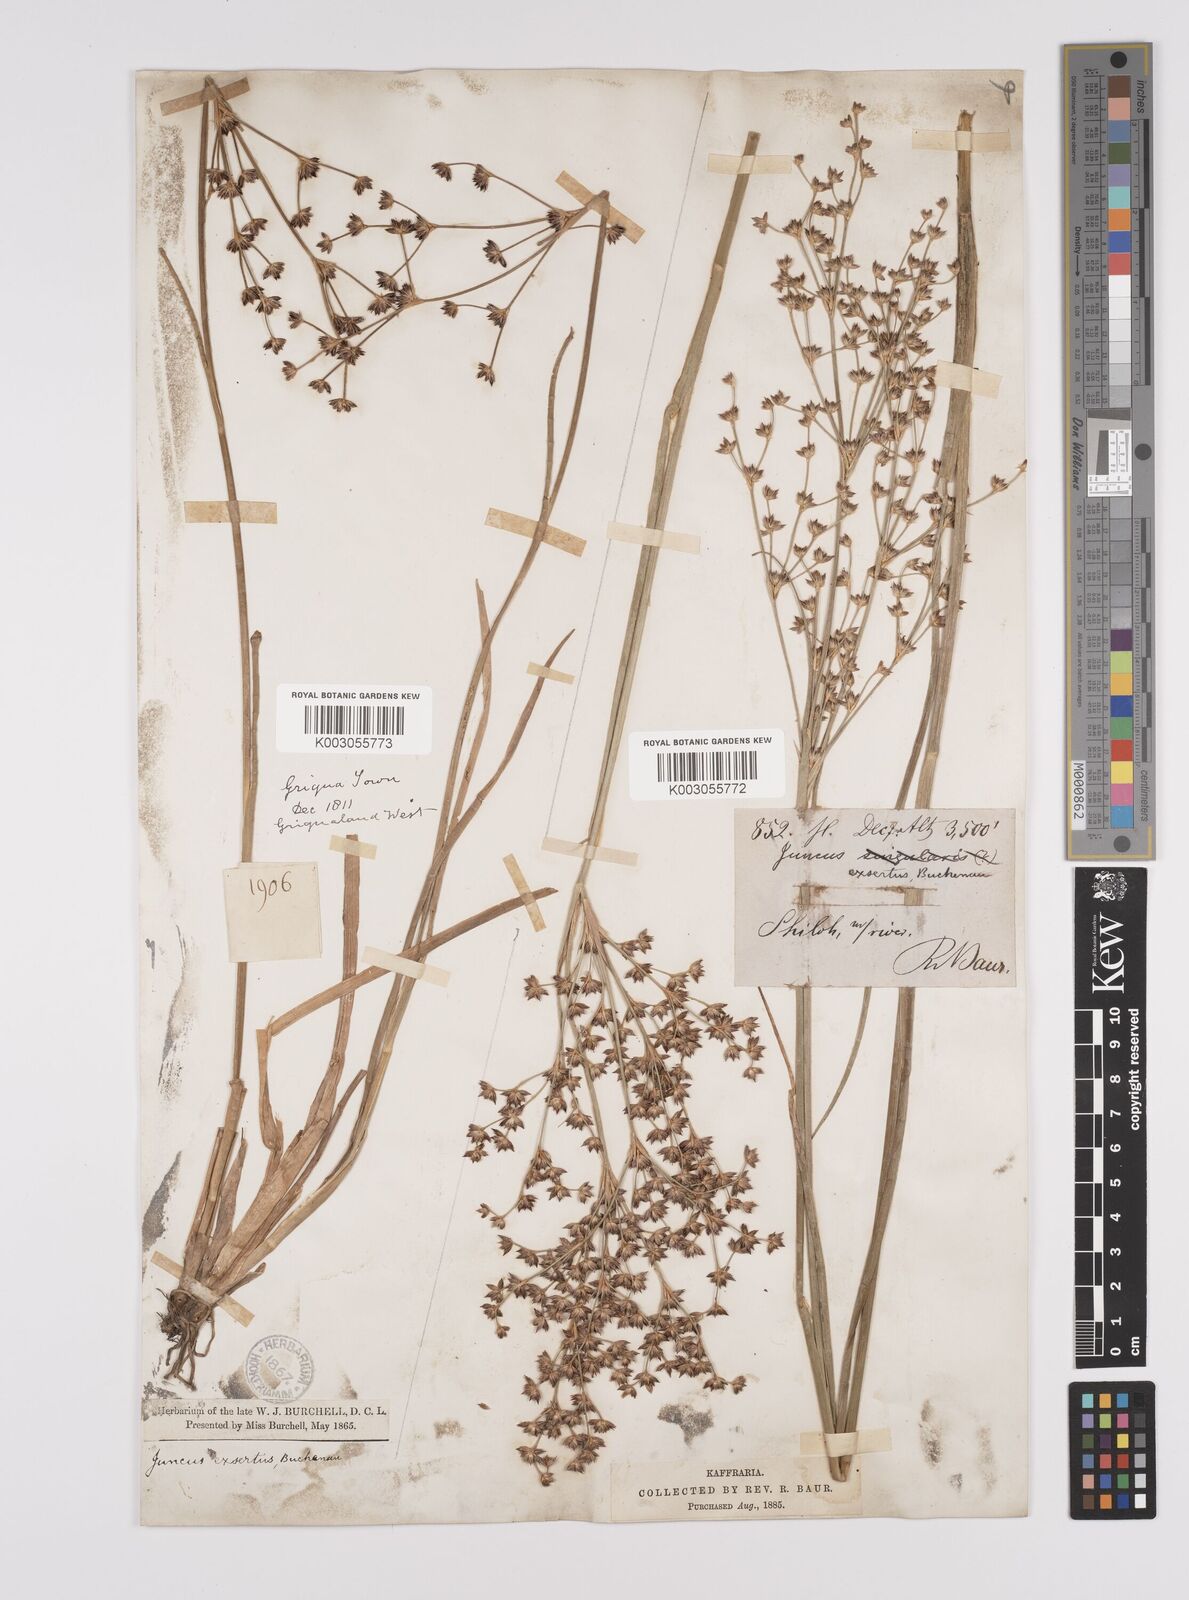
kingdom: Plantae
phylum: Tracheophyta
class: Liliopsida
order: Poales
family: Juncaceae
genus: Juncus
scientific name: Juncus exsertus
